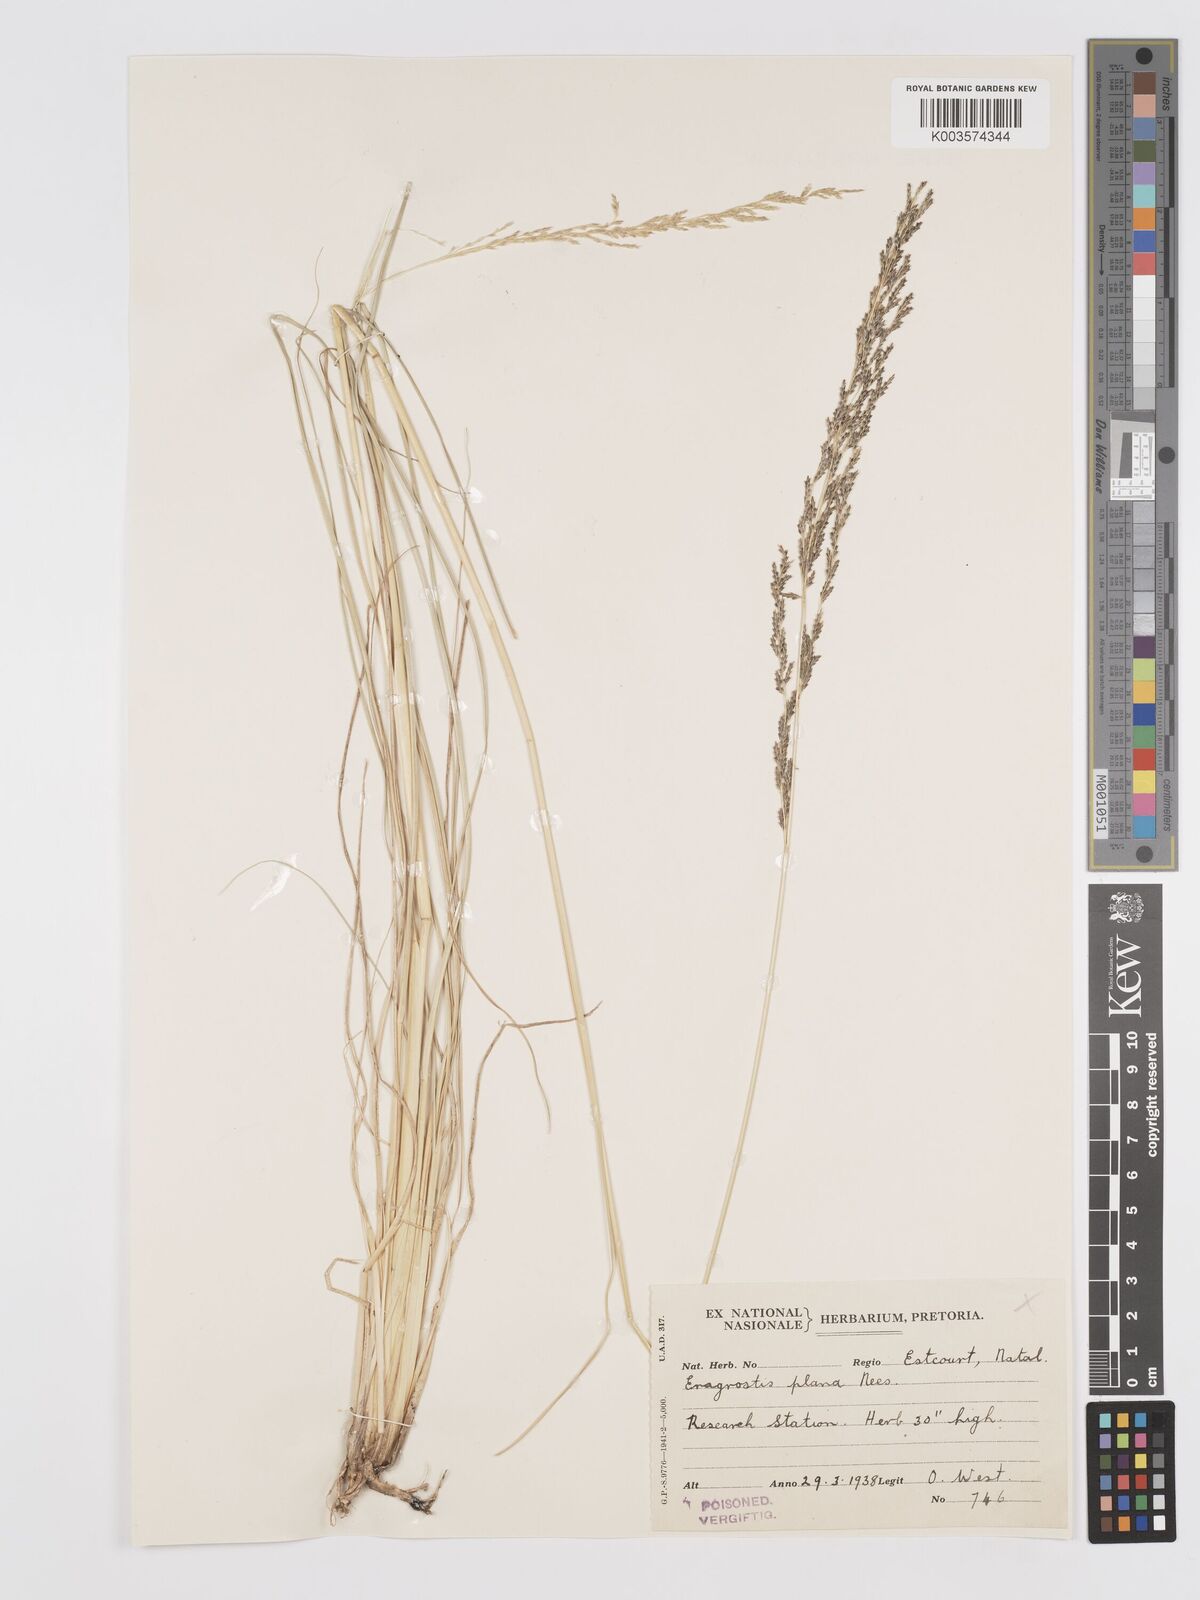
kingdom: Plantae
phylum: Tracheophyta
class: Liliopsida
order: Poales
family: Poaceae
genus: Eragrostis
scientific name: Eragrostis plana
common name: South african lovegrass
